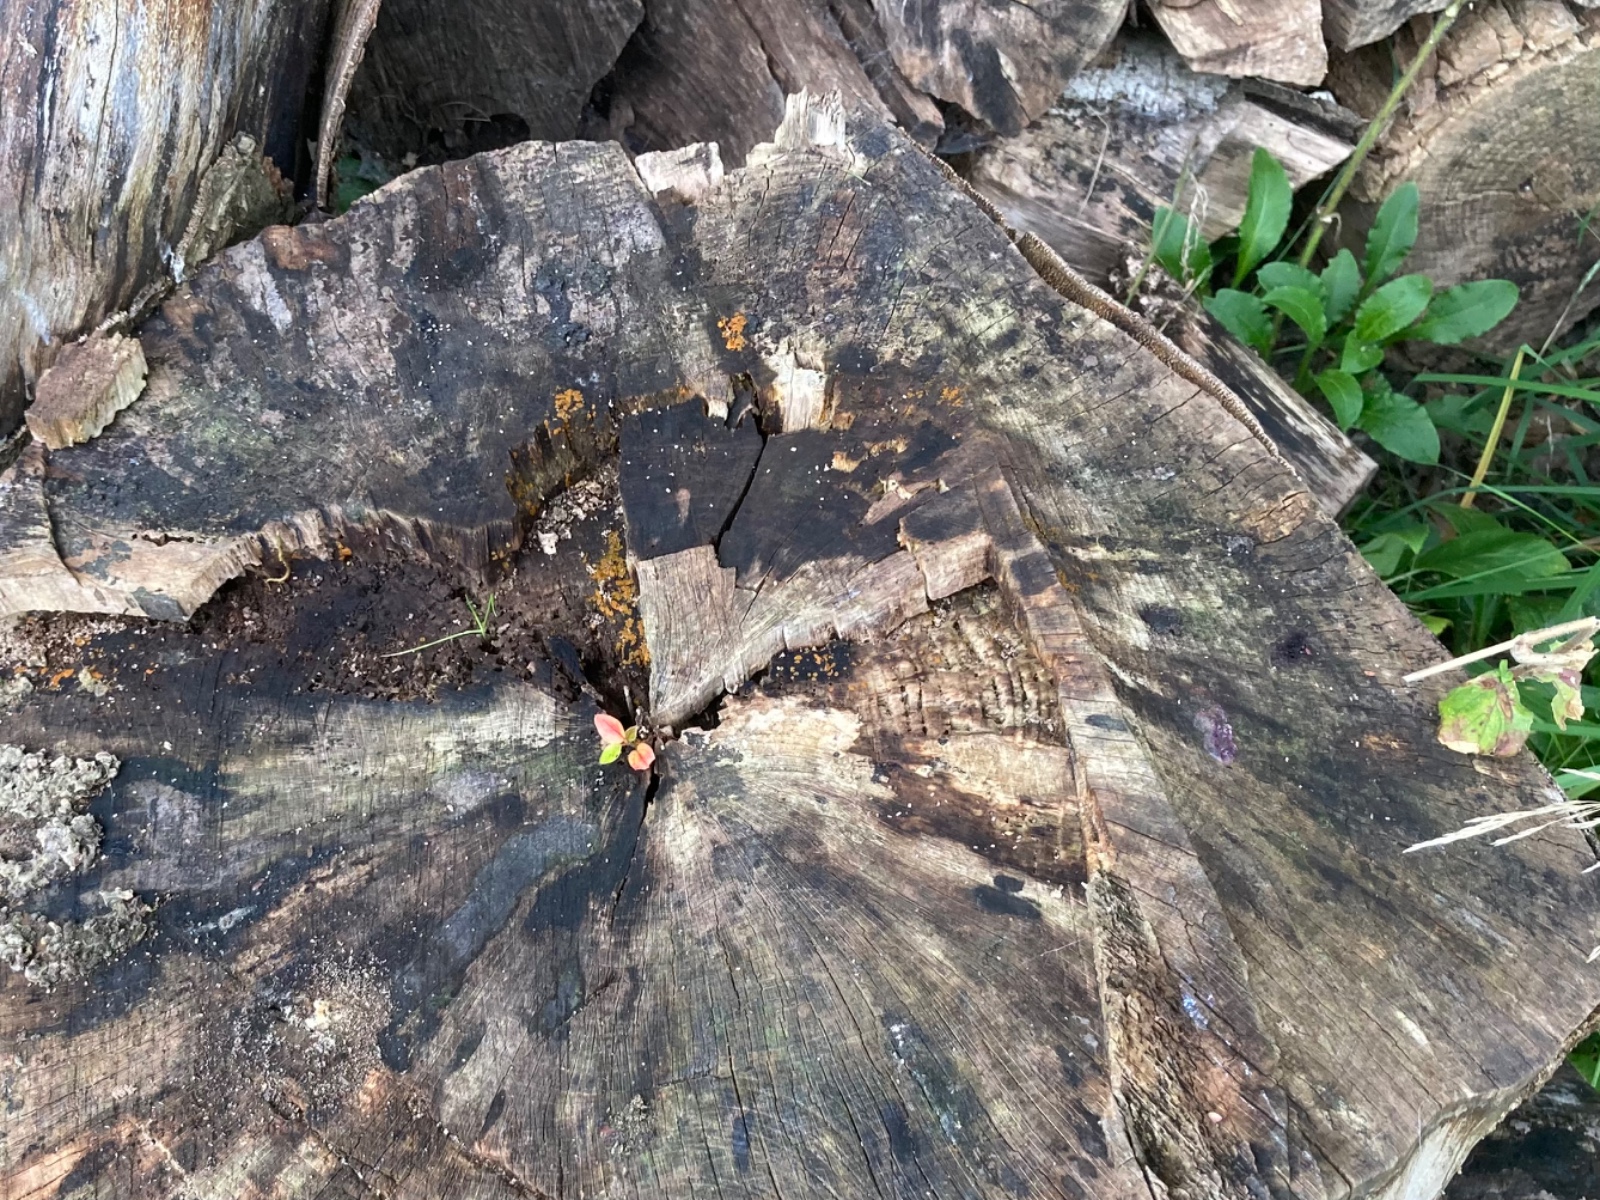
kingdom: Fungi
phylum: Ascomycota
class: Orbiliomycetes
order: Orbiliales
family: Orbiliaceae
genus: Orbilia
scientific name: Orbilia xanthostigma
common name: krumsporet voksskive
